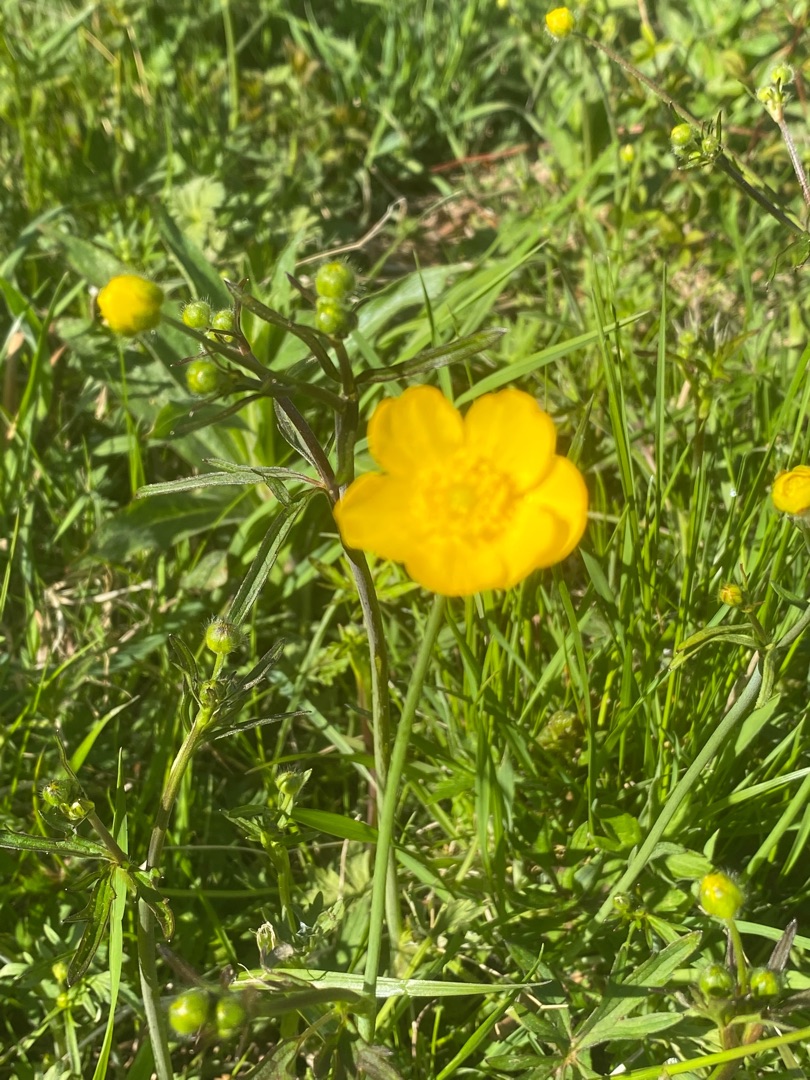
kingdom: Plantae
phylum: Tracheophyta
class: Magnoliopsida
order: Ranunculales
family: Ranunculaceae
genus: Ranunculus
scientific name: Ranunculus acris
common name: Bidende ranunkel
